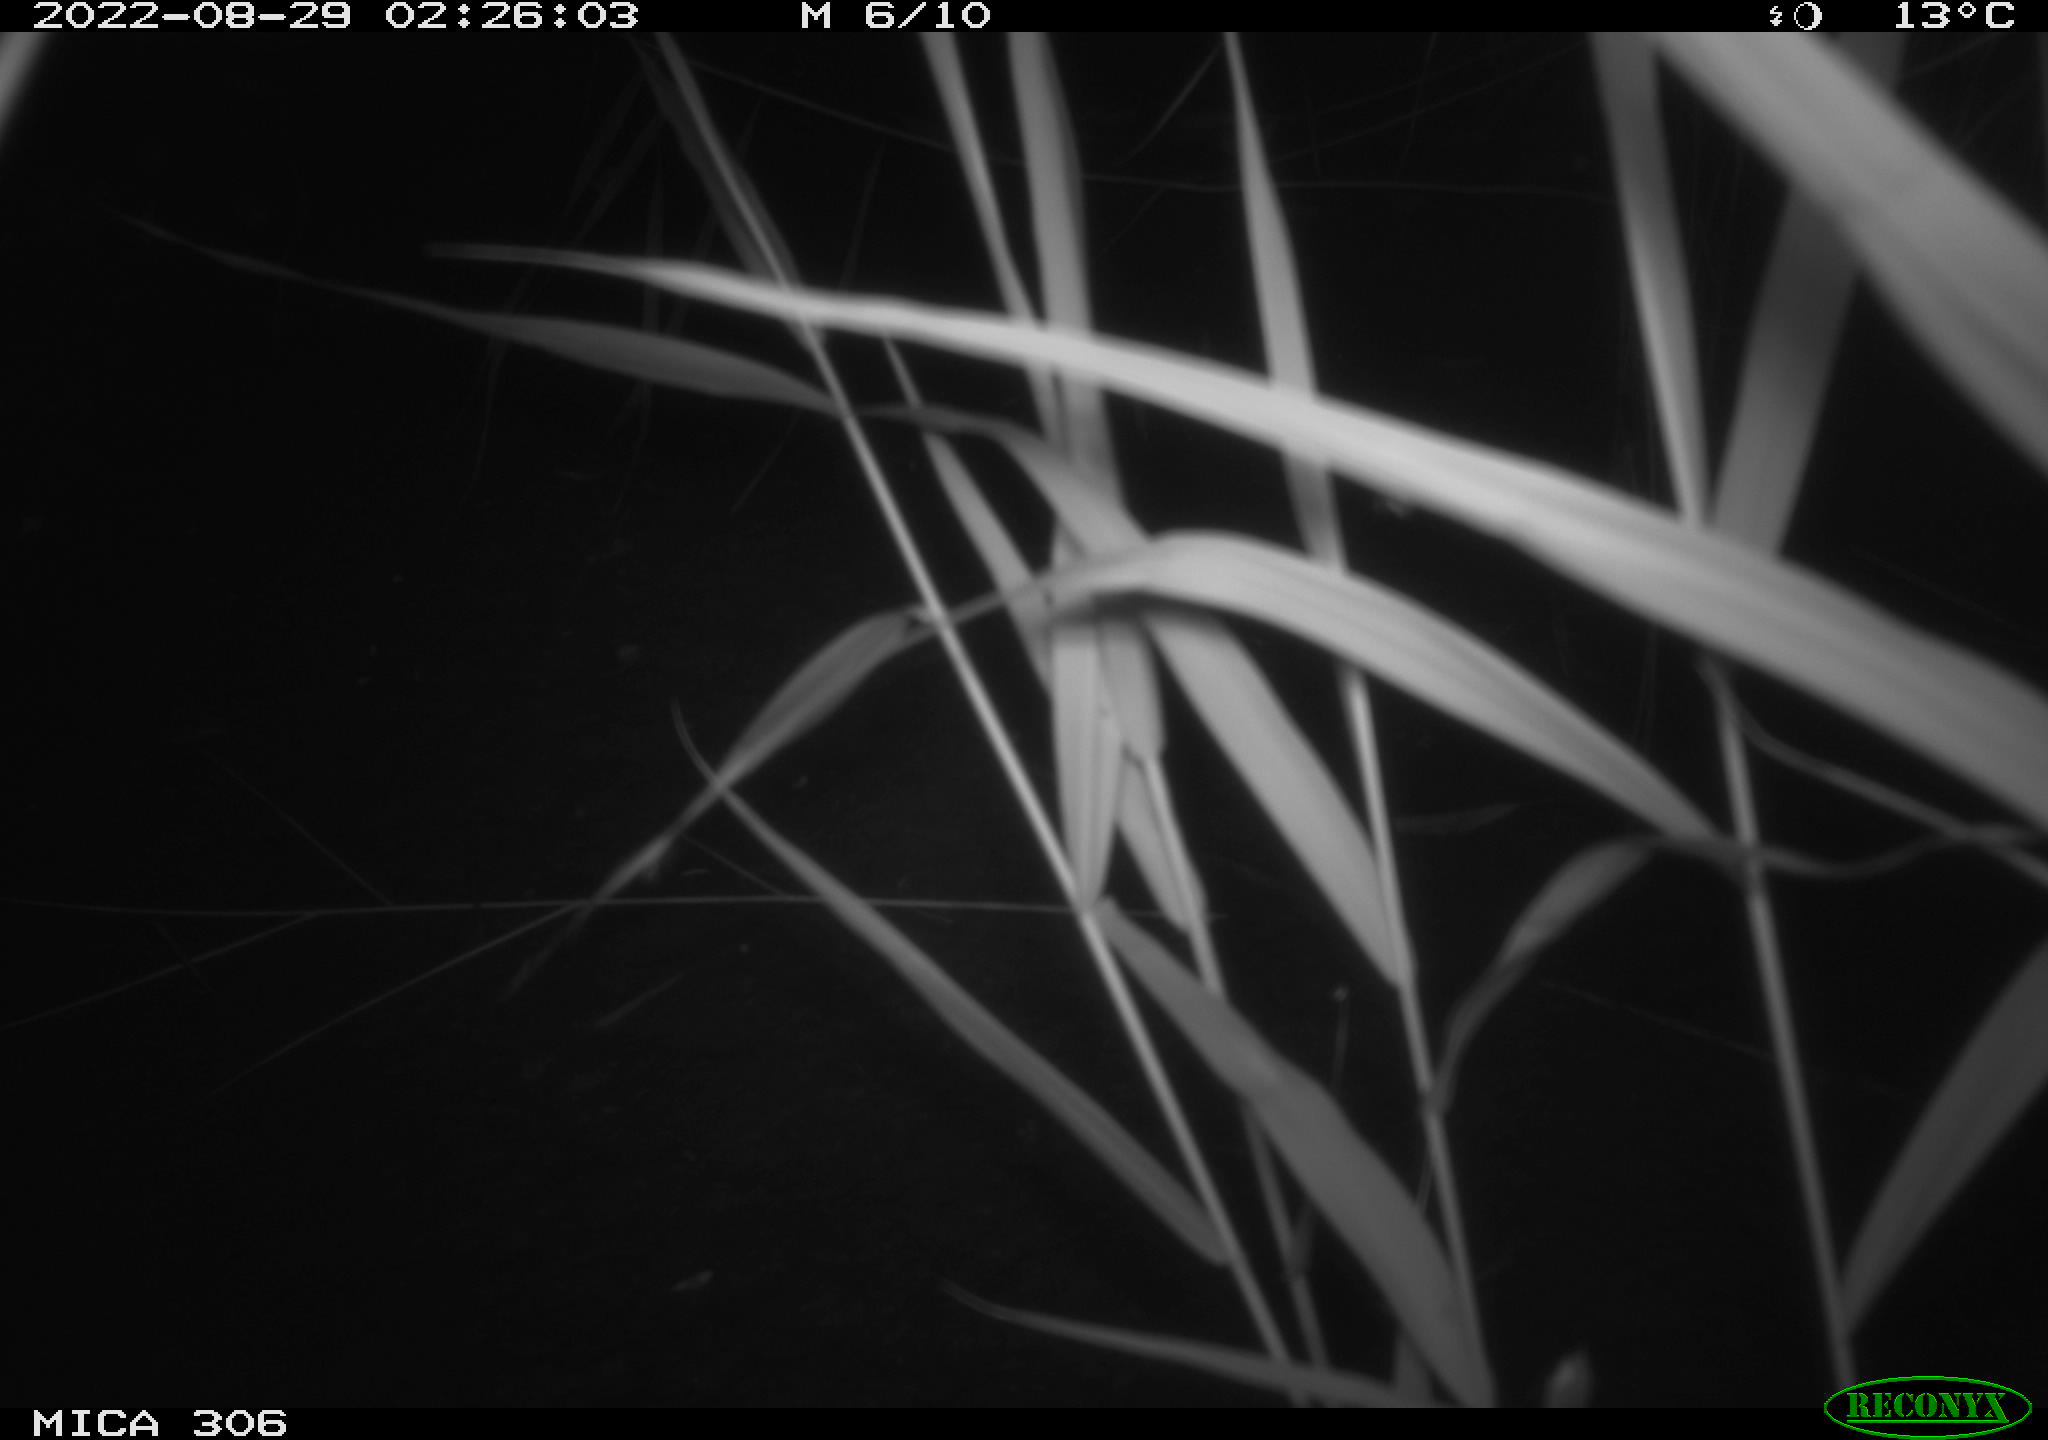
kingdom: Animalia
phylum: Chordata
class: Mammalia
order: Rodentia
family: Muridae
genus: Rattus
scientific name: Rattus norvegicus
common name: Brown rat
